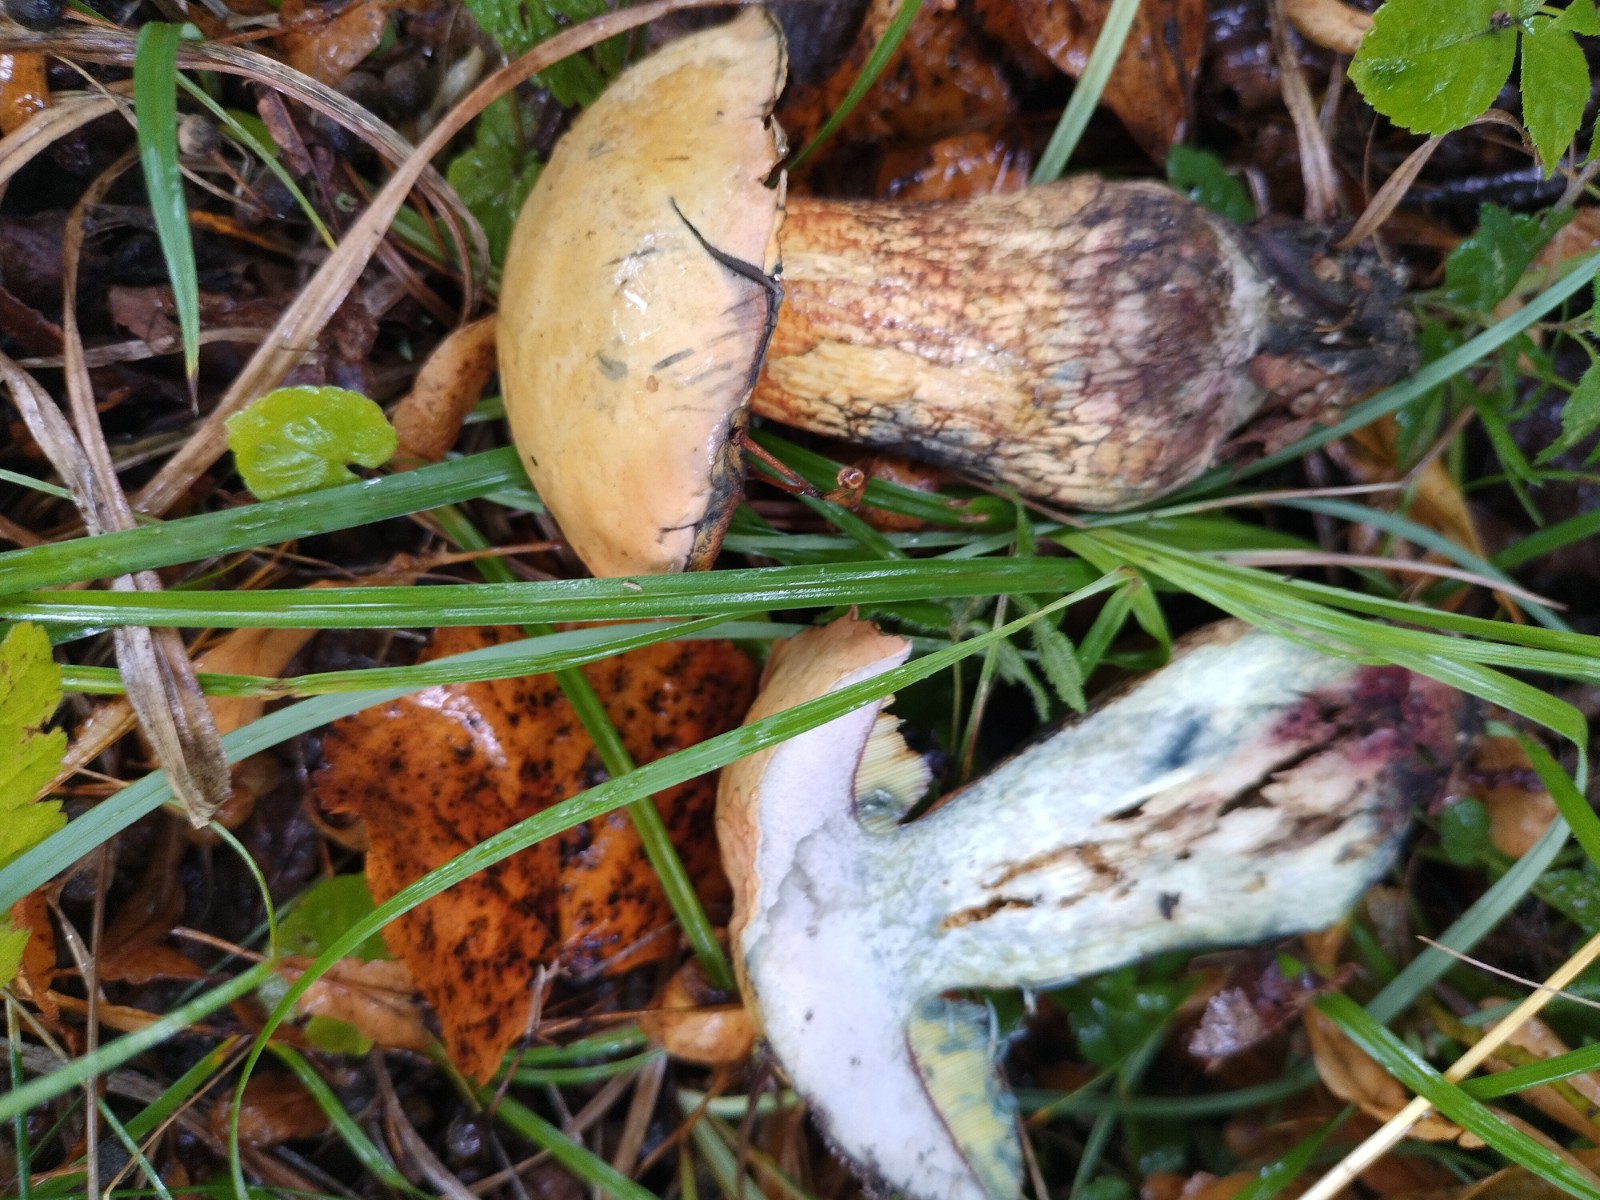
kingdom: Fungi
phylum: Basidiomycota
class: Agaricomycetes
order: Boletales
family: Boletaceae
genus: Suillellus
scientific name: Suillellus luridus
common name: netstokket indigorørhat
